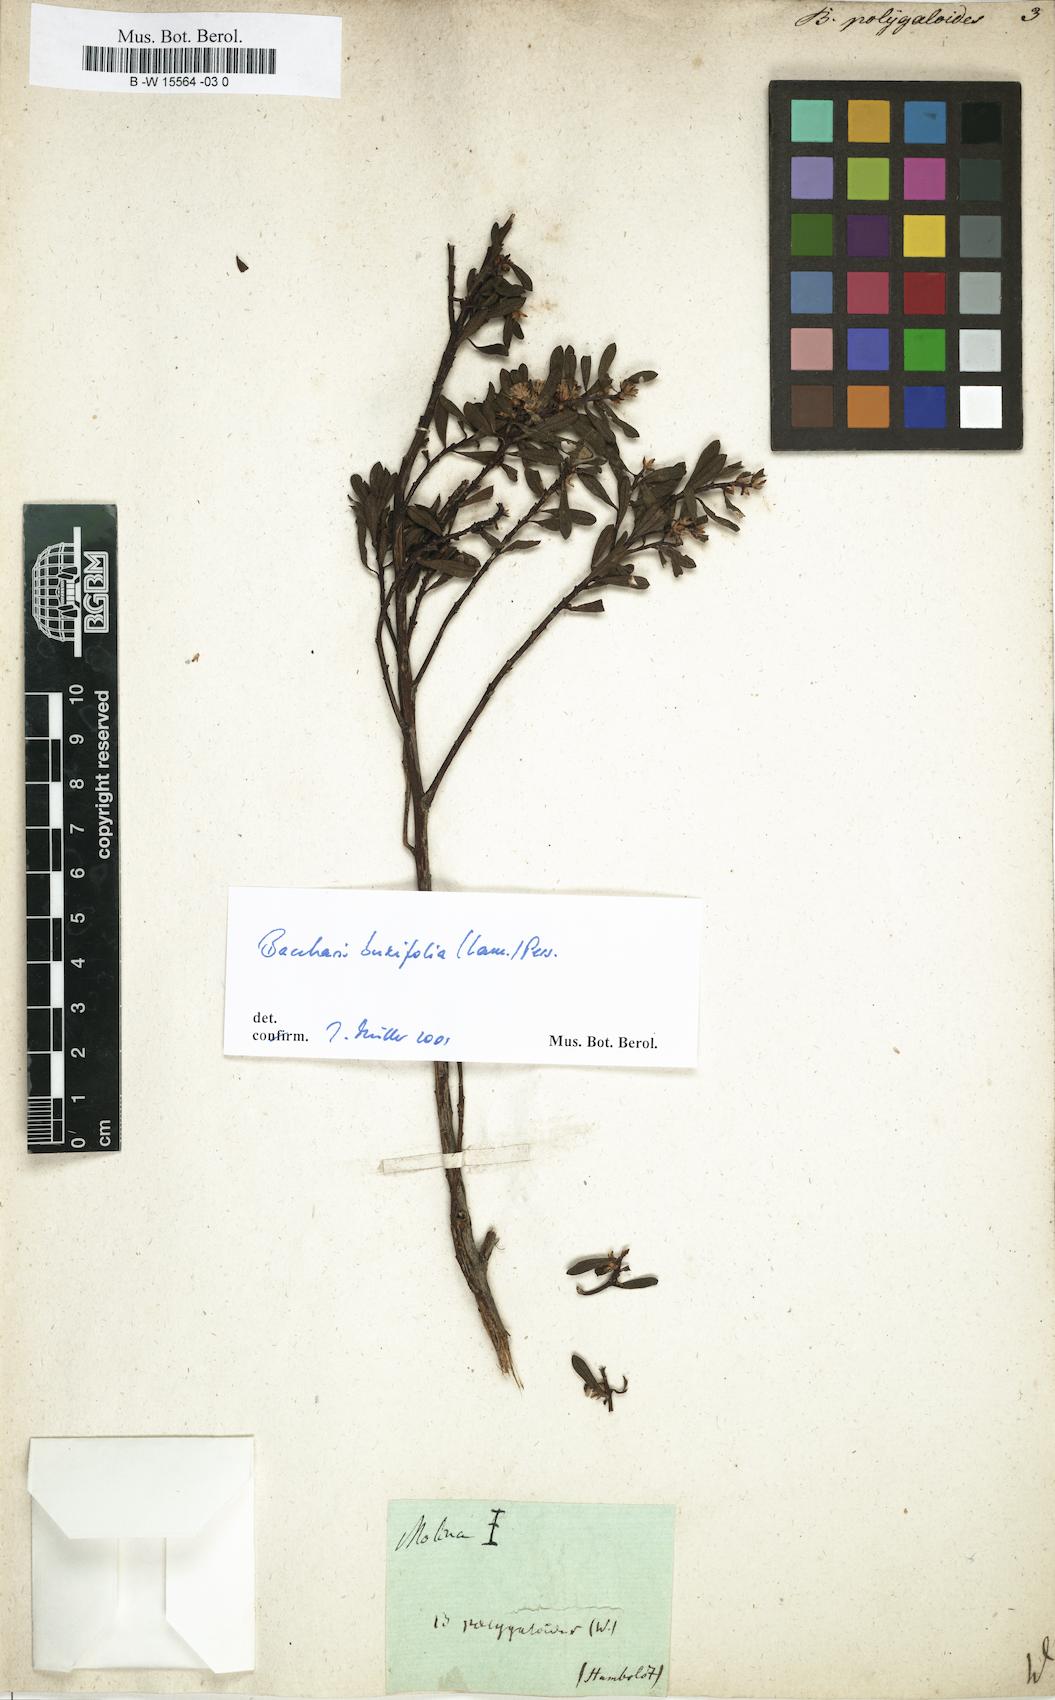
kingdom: Plantae
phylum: Tracheophyta
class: Magnoliopsida
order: Asterales
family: Asteraceae
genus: Baccharis
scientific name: Baccharis
